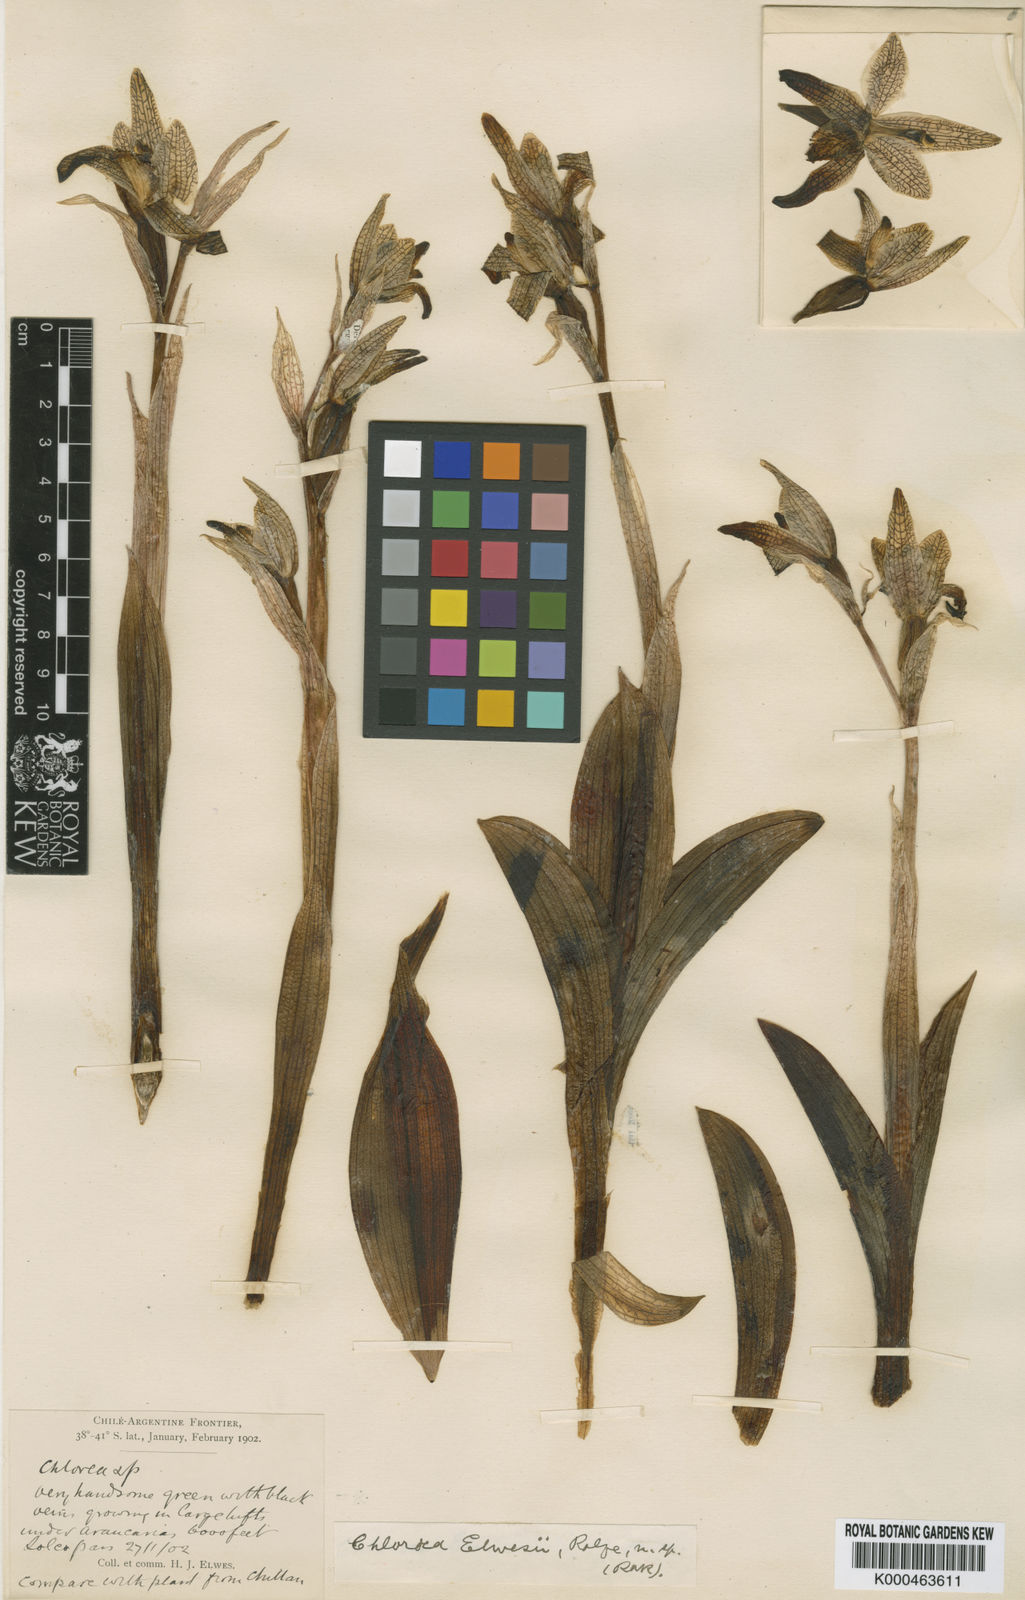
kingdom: Plantae
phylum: Tracheophyta
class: Liliopsida
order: Asparagales
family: Orchidaceae
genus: Chloraea
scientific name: Chloraea viridiflora
